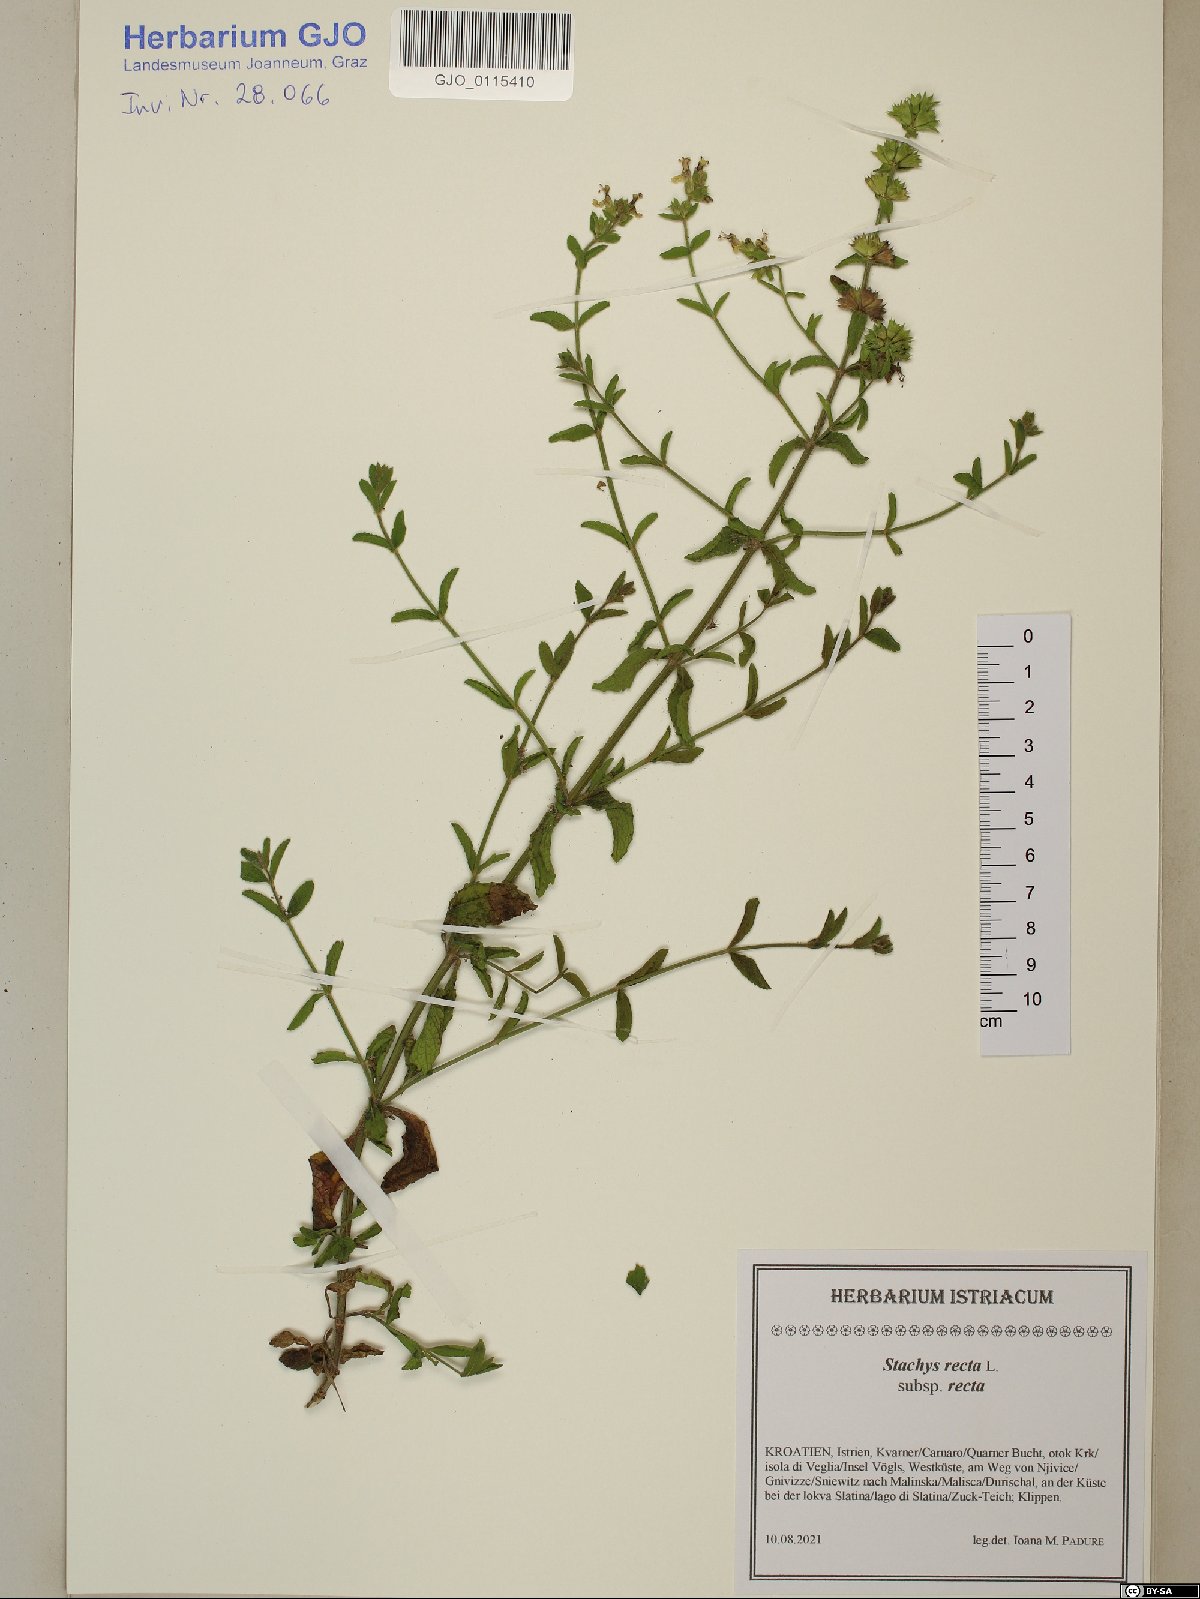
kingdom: Plantae
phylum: Tracheophyta
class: Magnoliopsida
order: Lamiales
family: Lamiaceae
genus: Stachys
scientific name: Stachys recta
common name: Perennial yellow-woundwort
